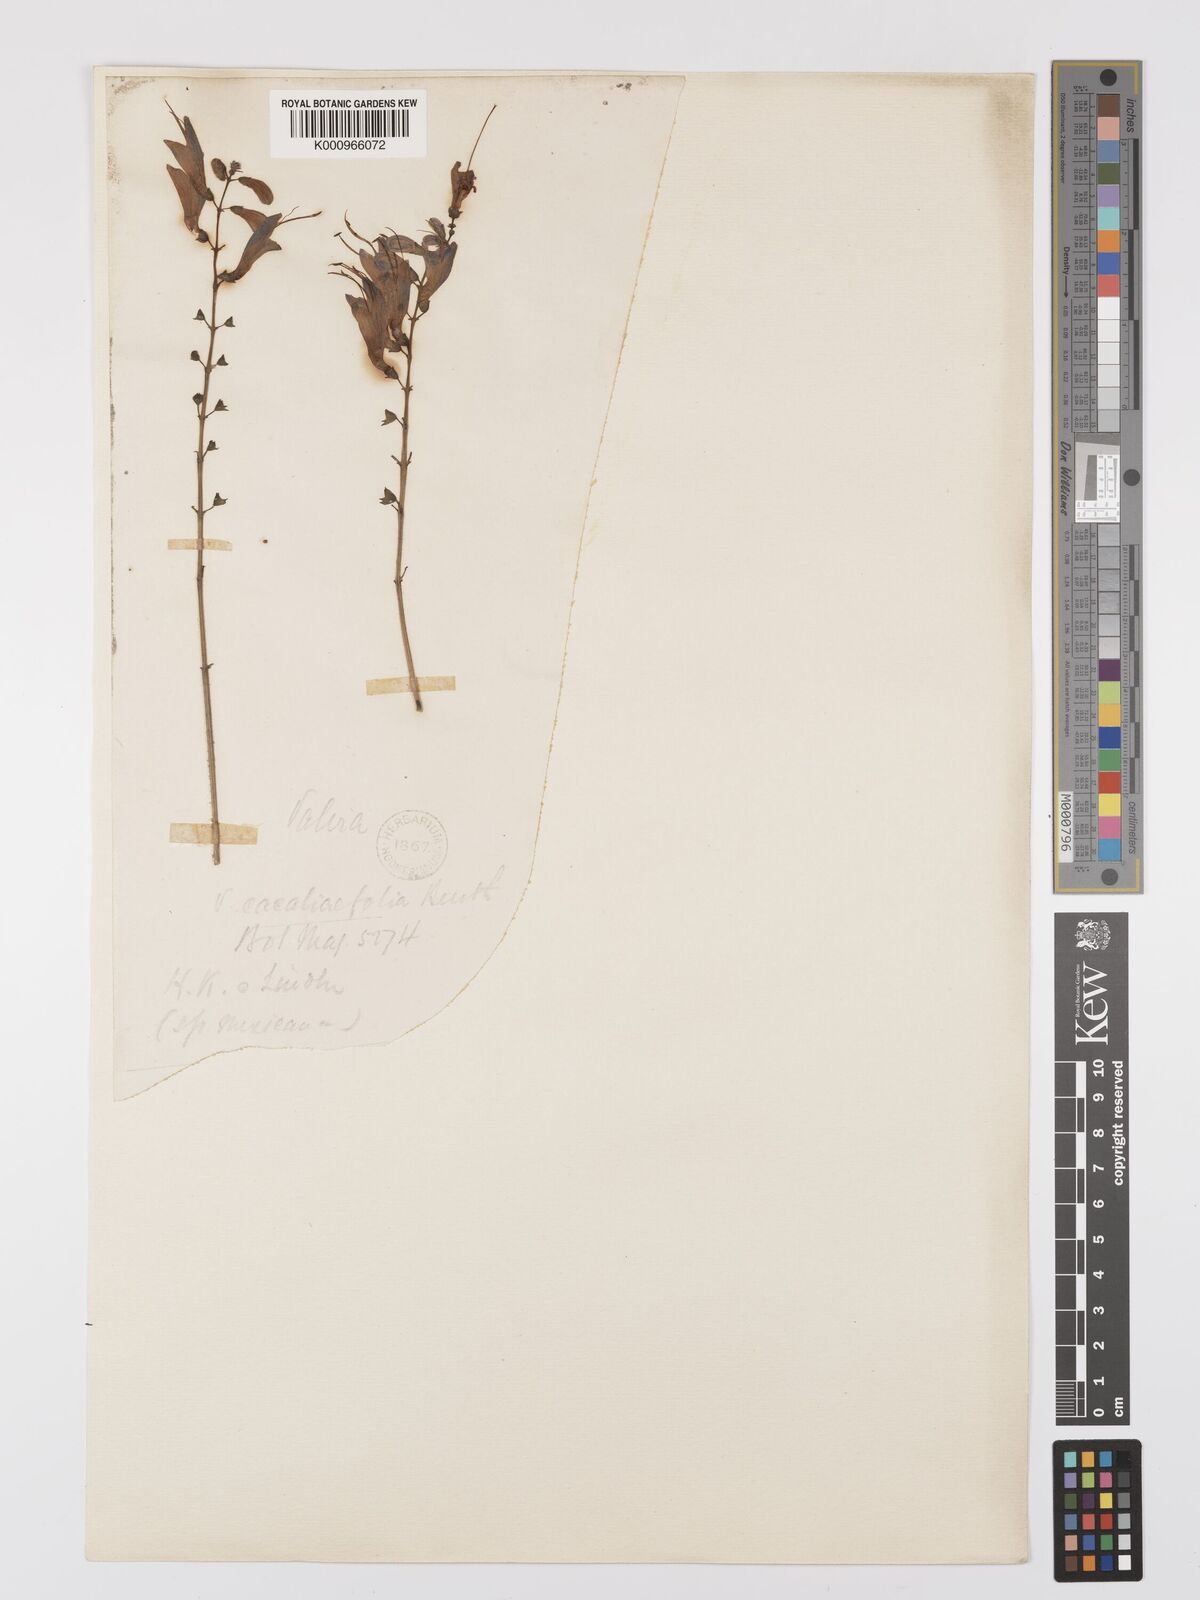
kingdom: Plantae
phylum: Tracheophyta
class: Magnoliopsida
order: Lamiales
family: Lamiaceae
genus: Salvia
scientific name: Salvia cacaliifolia
